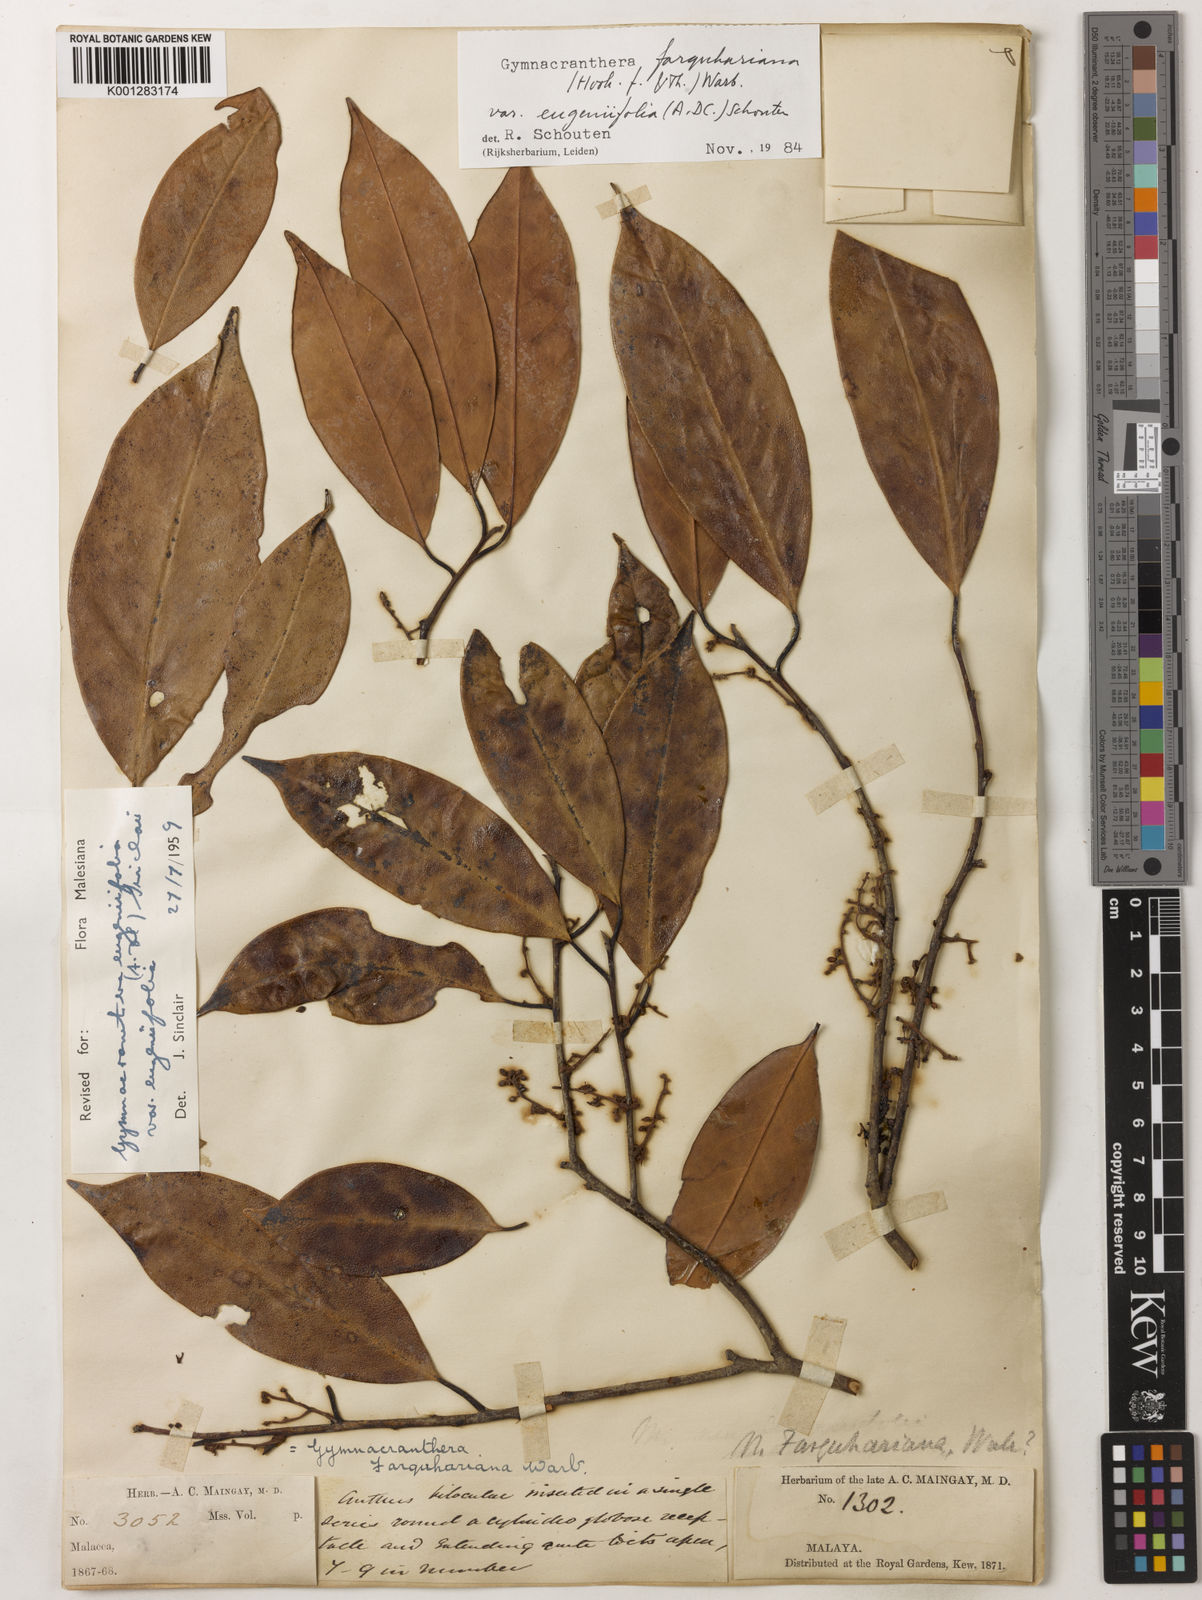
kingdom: Plantae
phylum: Tracheophyta
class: Magnoliopsida
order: Magnoliales
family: Myristicaceae
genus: Gymnacranthera
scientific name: Gymnacranthera farquhariana
